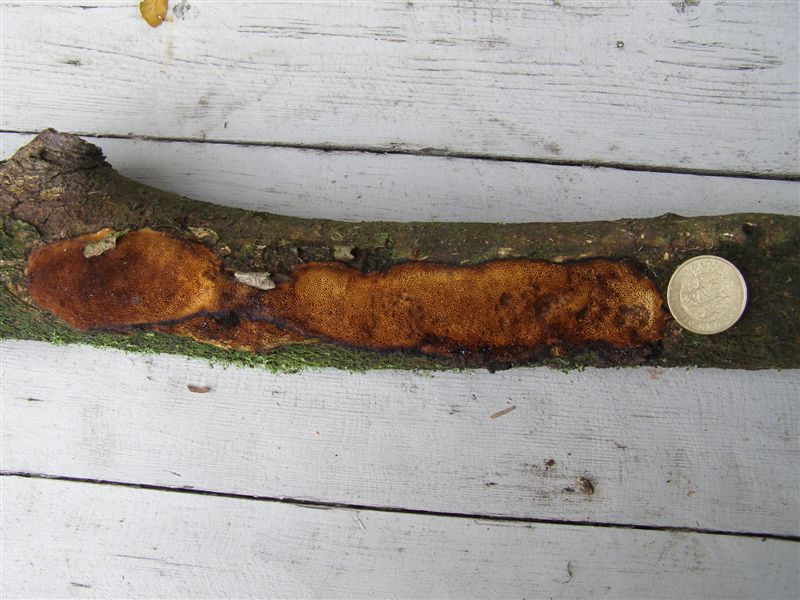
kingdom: Fungi
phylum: Basidiomycota
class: Agaricomycetes
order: Polyporales
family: Polyporaceae
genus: Szczepkamyces
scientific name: Szczepkamyces campestris
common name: hasselporesvamp
